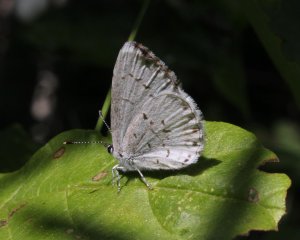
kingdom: Animalia
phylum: Arthropoda
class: Insecta
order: Lepidoptera
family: Lycaenidae
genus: Cyaniris
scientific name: Cyaniris neglecta
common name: Summer Azure
